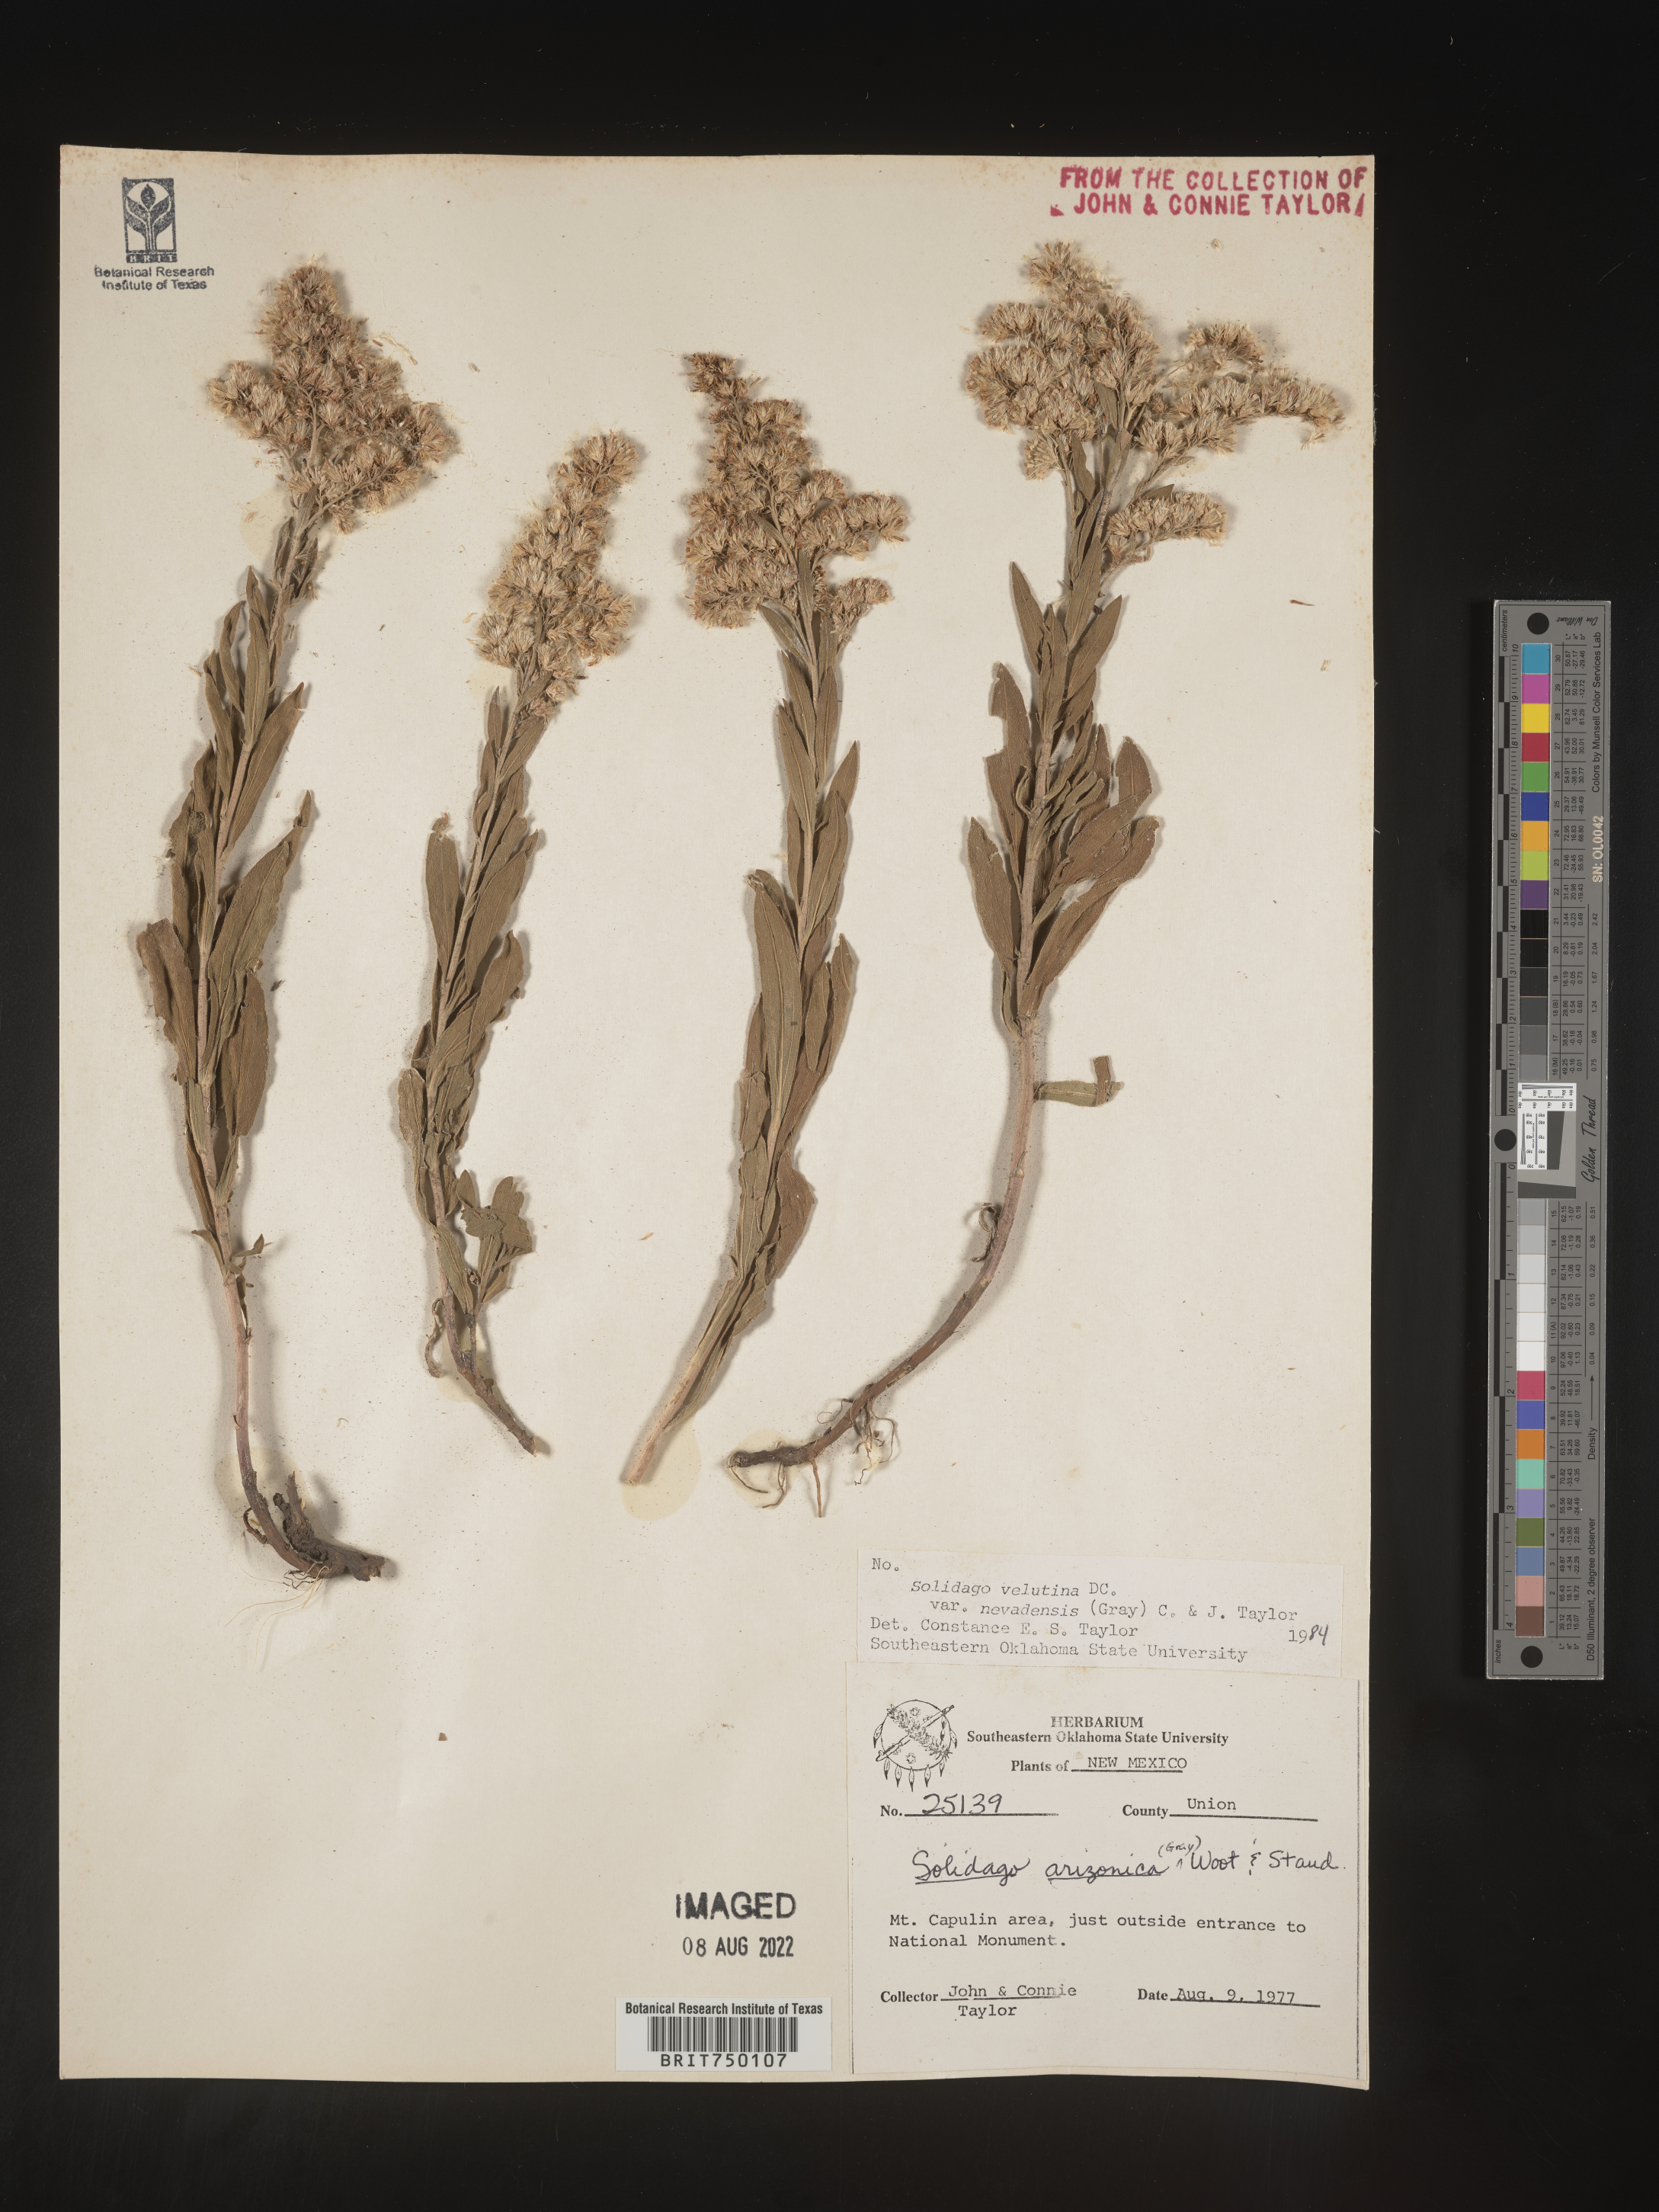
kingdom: Plantae
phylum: Tracheophyta
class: Magnoliopsida
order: Asterales
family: Asteraceae
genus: Solidago
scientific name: Solidago velutina
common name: Three-nerve goldenrod
